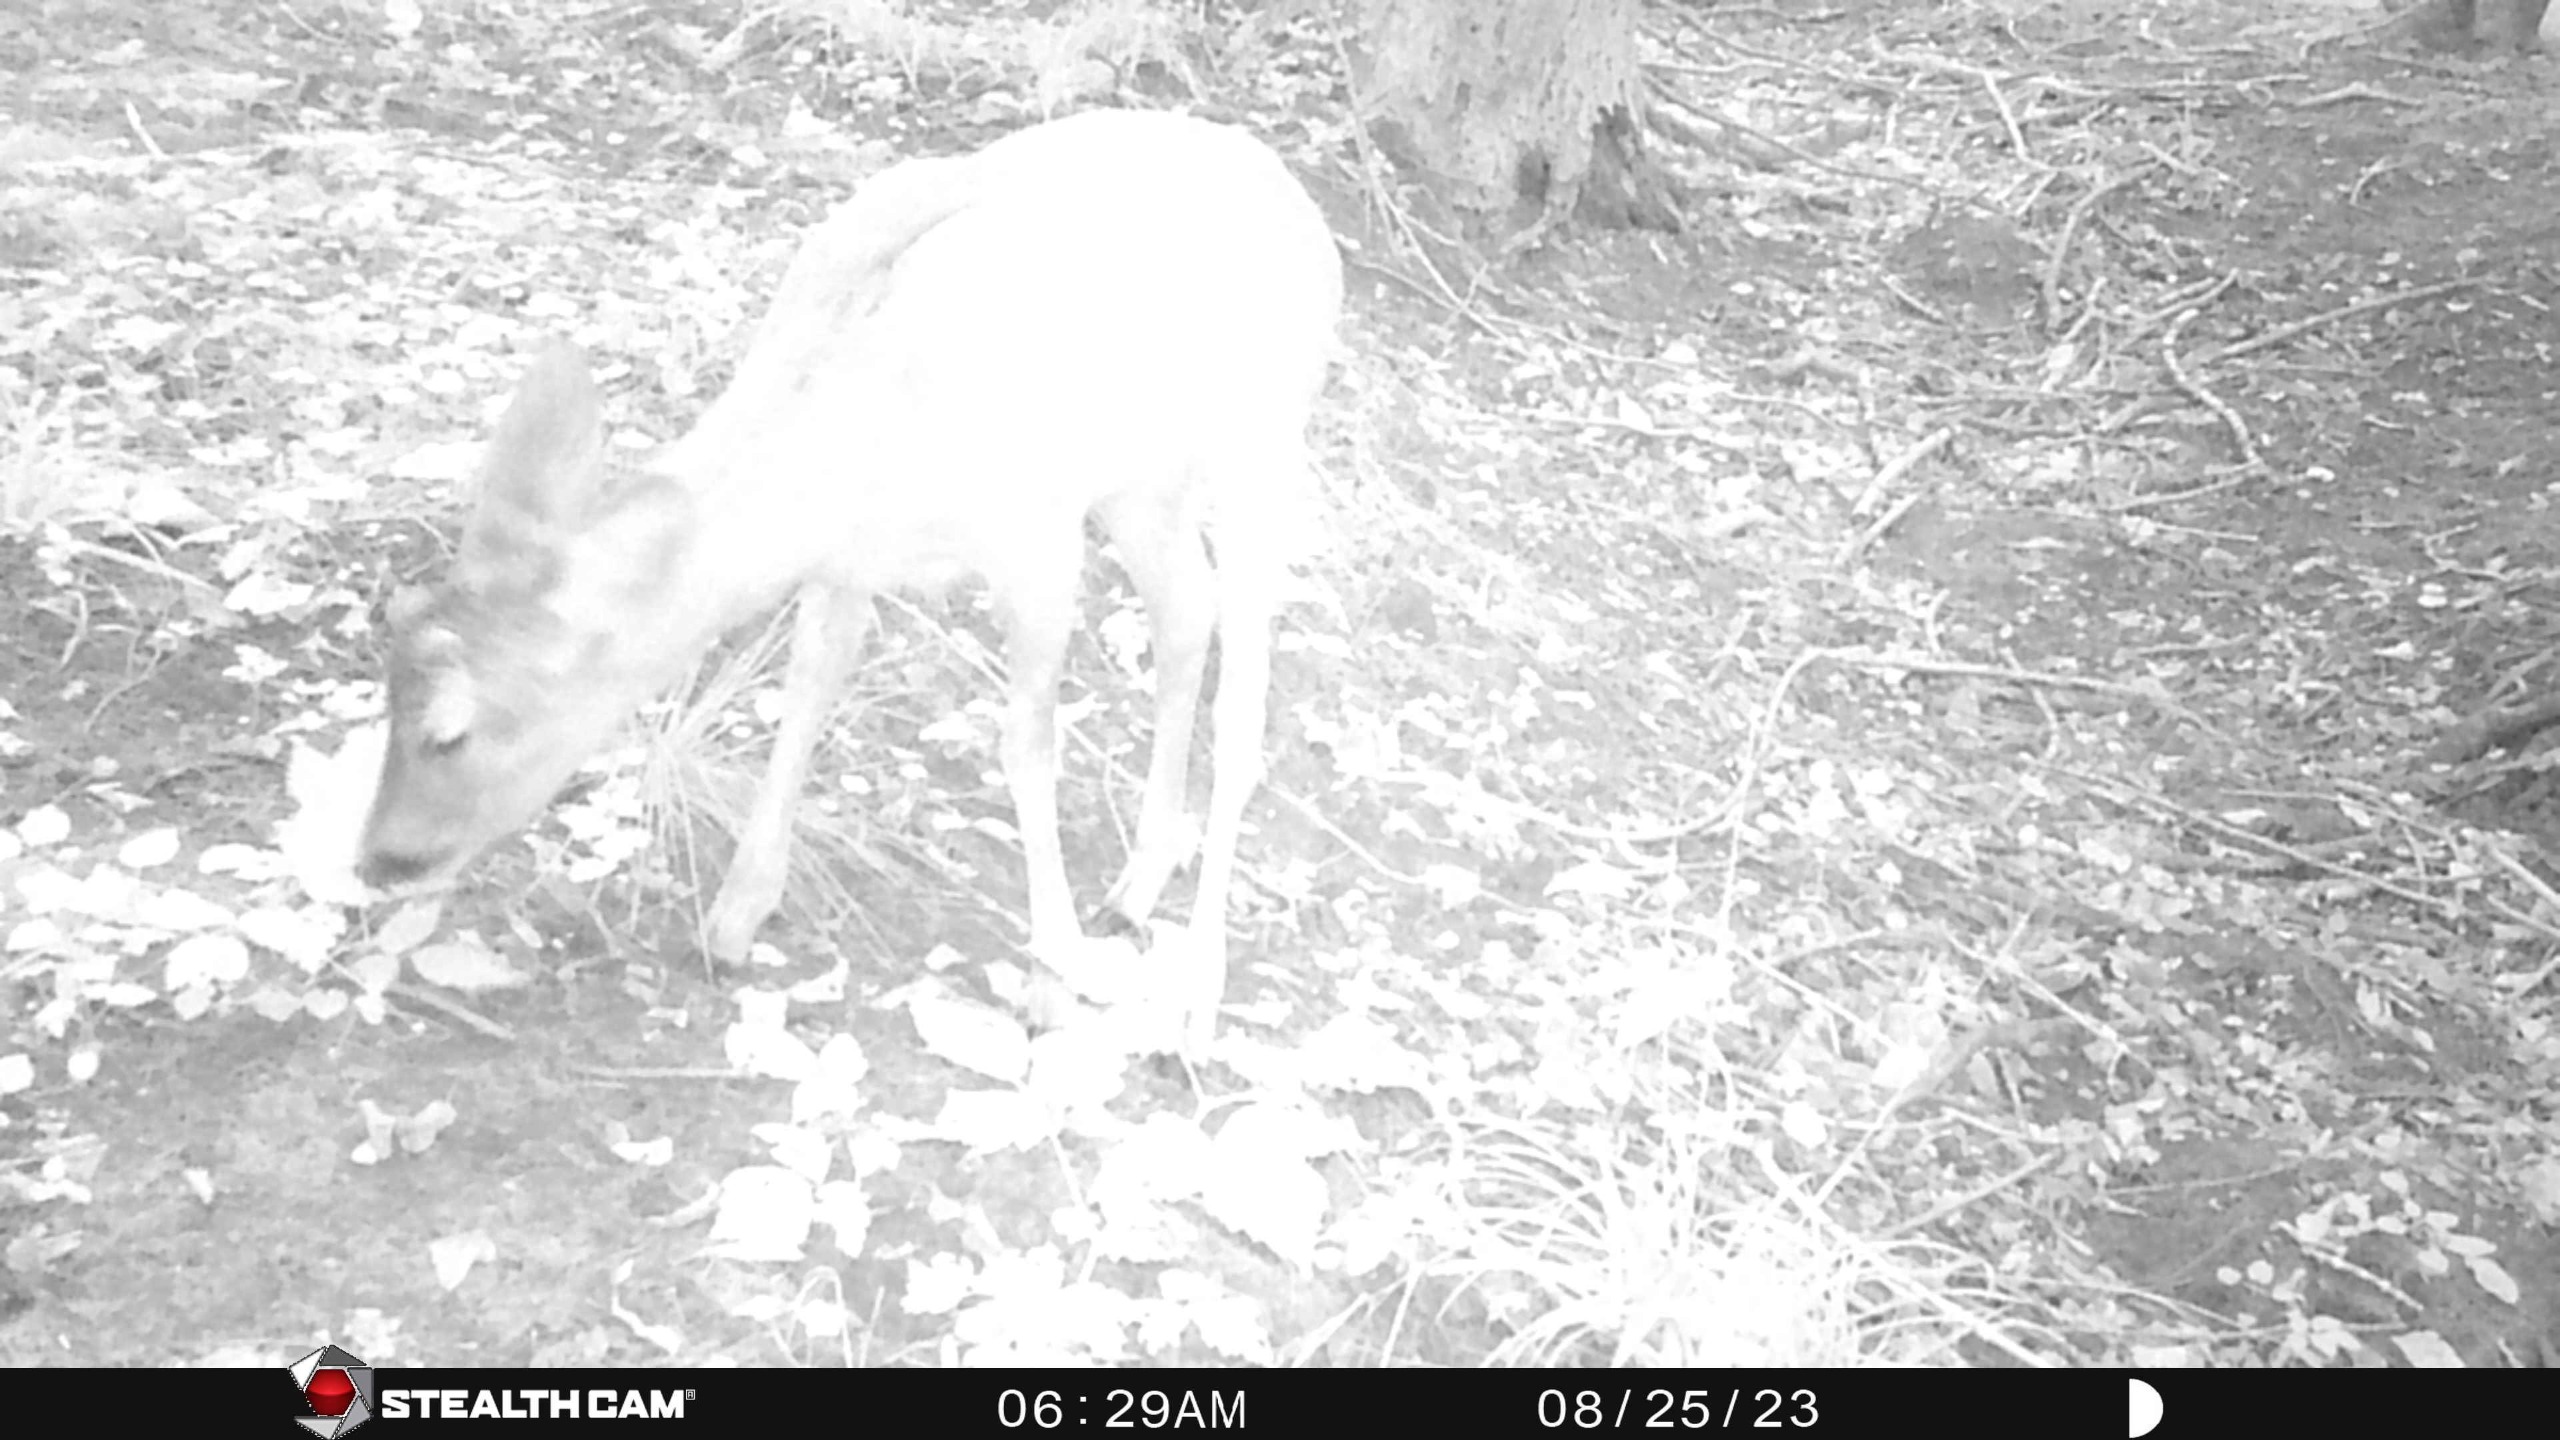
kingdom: Animalia
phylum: Chordata
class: Mammalia
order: Artiodactyla
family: Cervidae
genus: Capreolus
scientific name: Capreolus capreolus
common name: Rådyr
